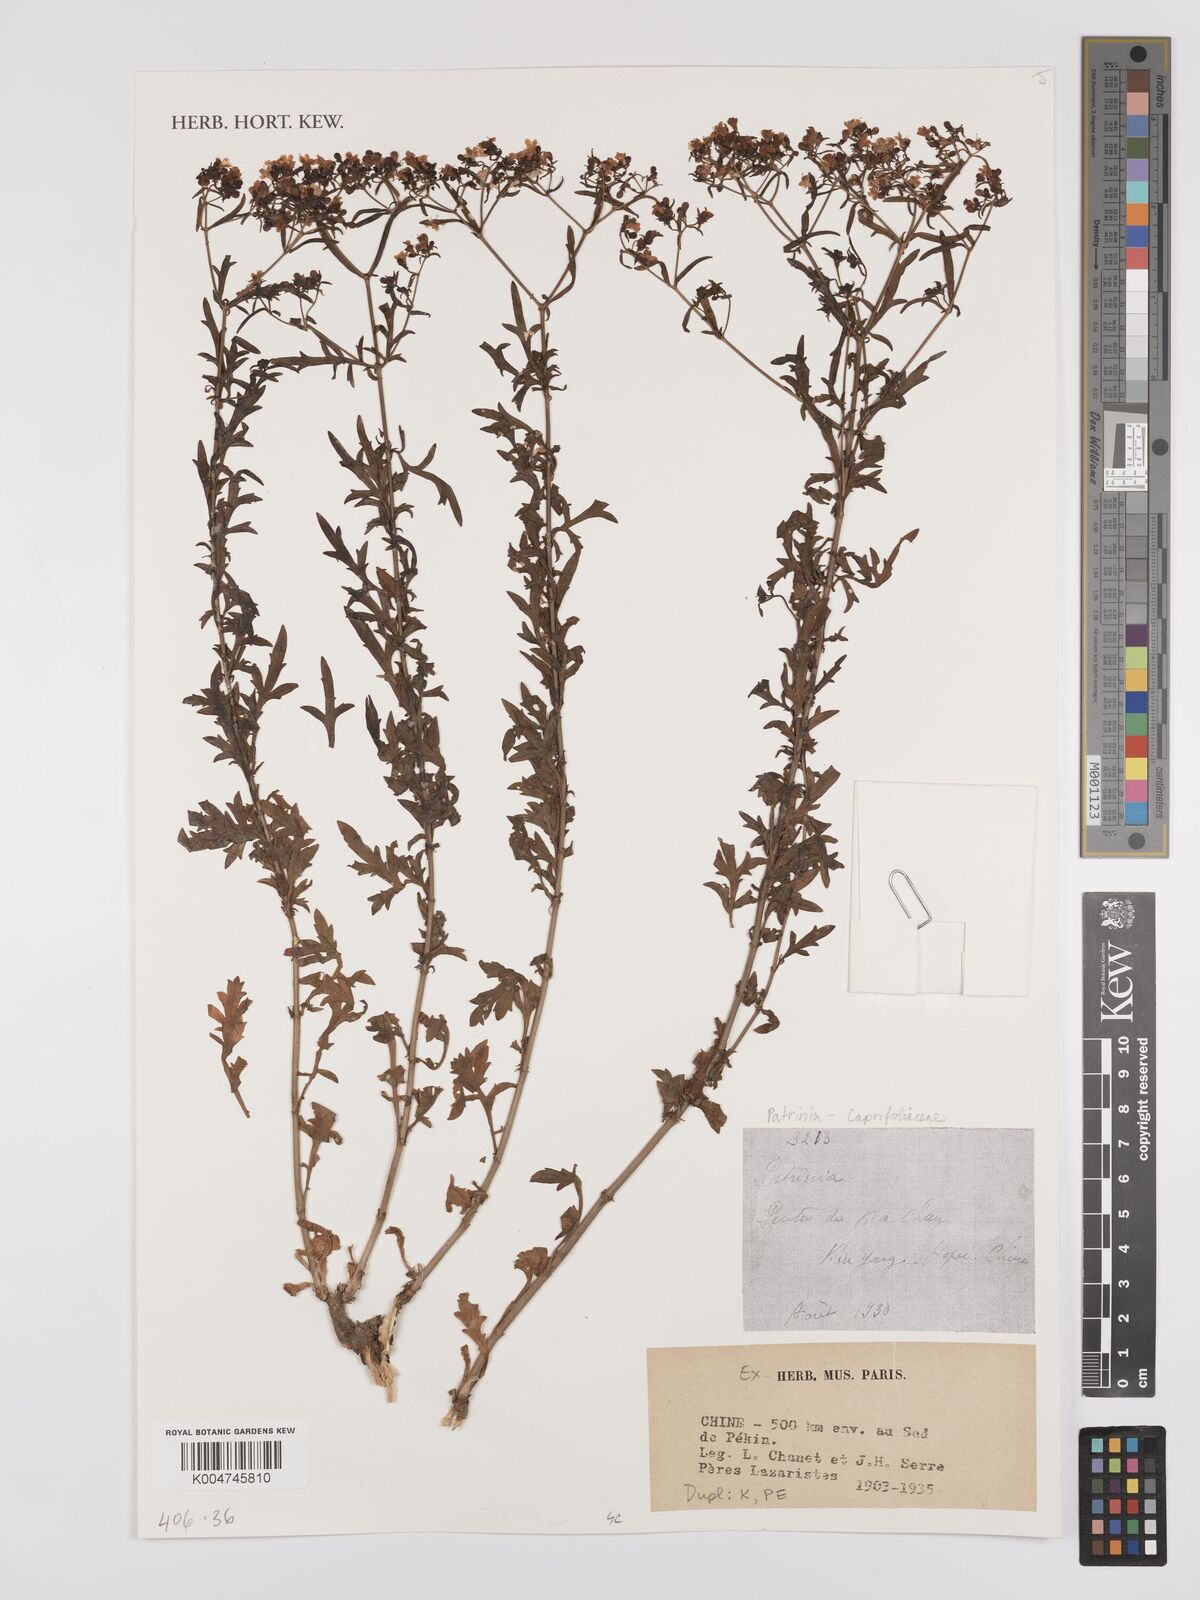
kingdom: Plantae
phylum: Tracheophyta
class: Magnoliopsida
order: Dipsacales
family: Caprifoliaceae
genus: Patrinia
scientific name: Patrinia
